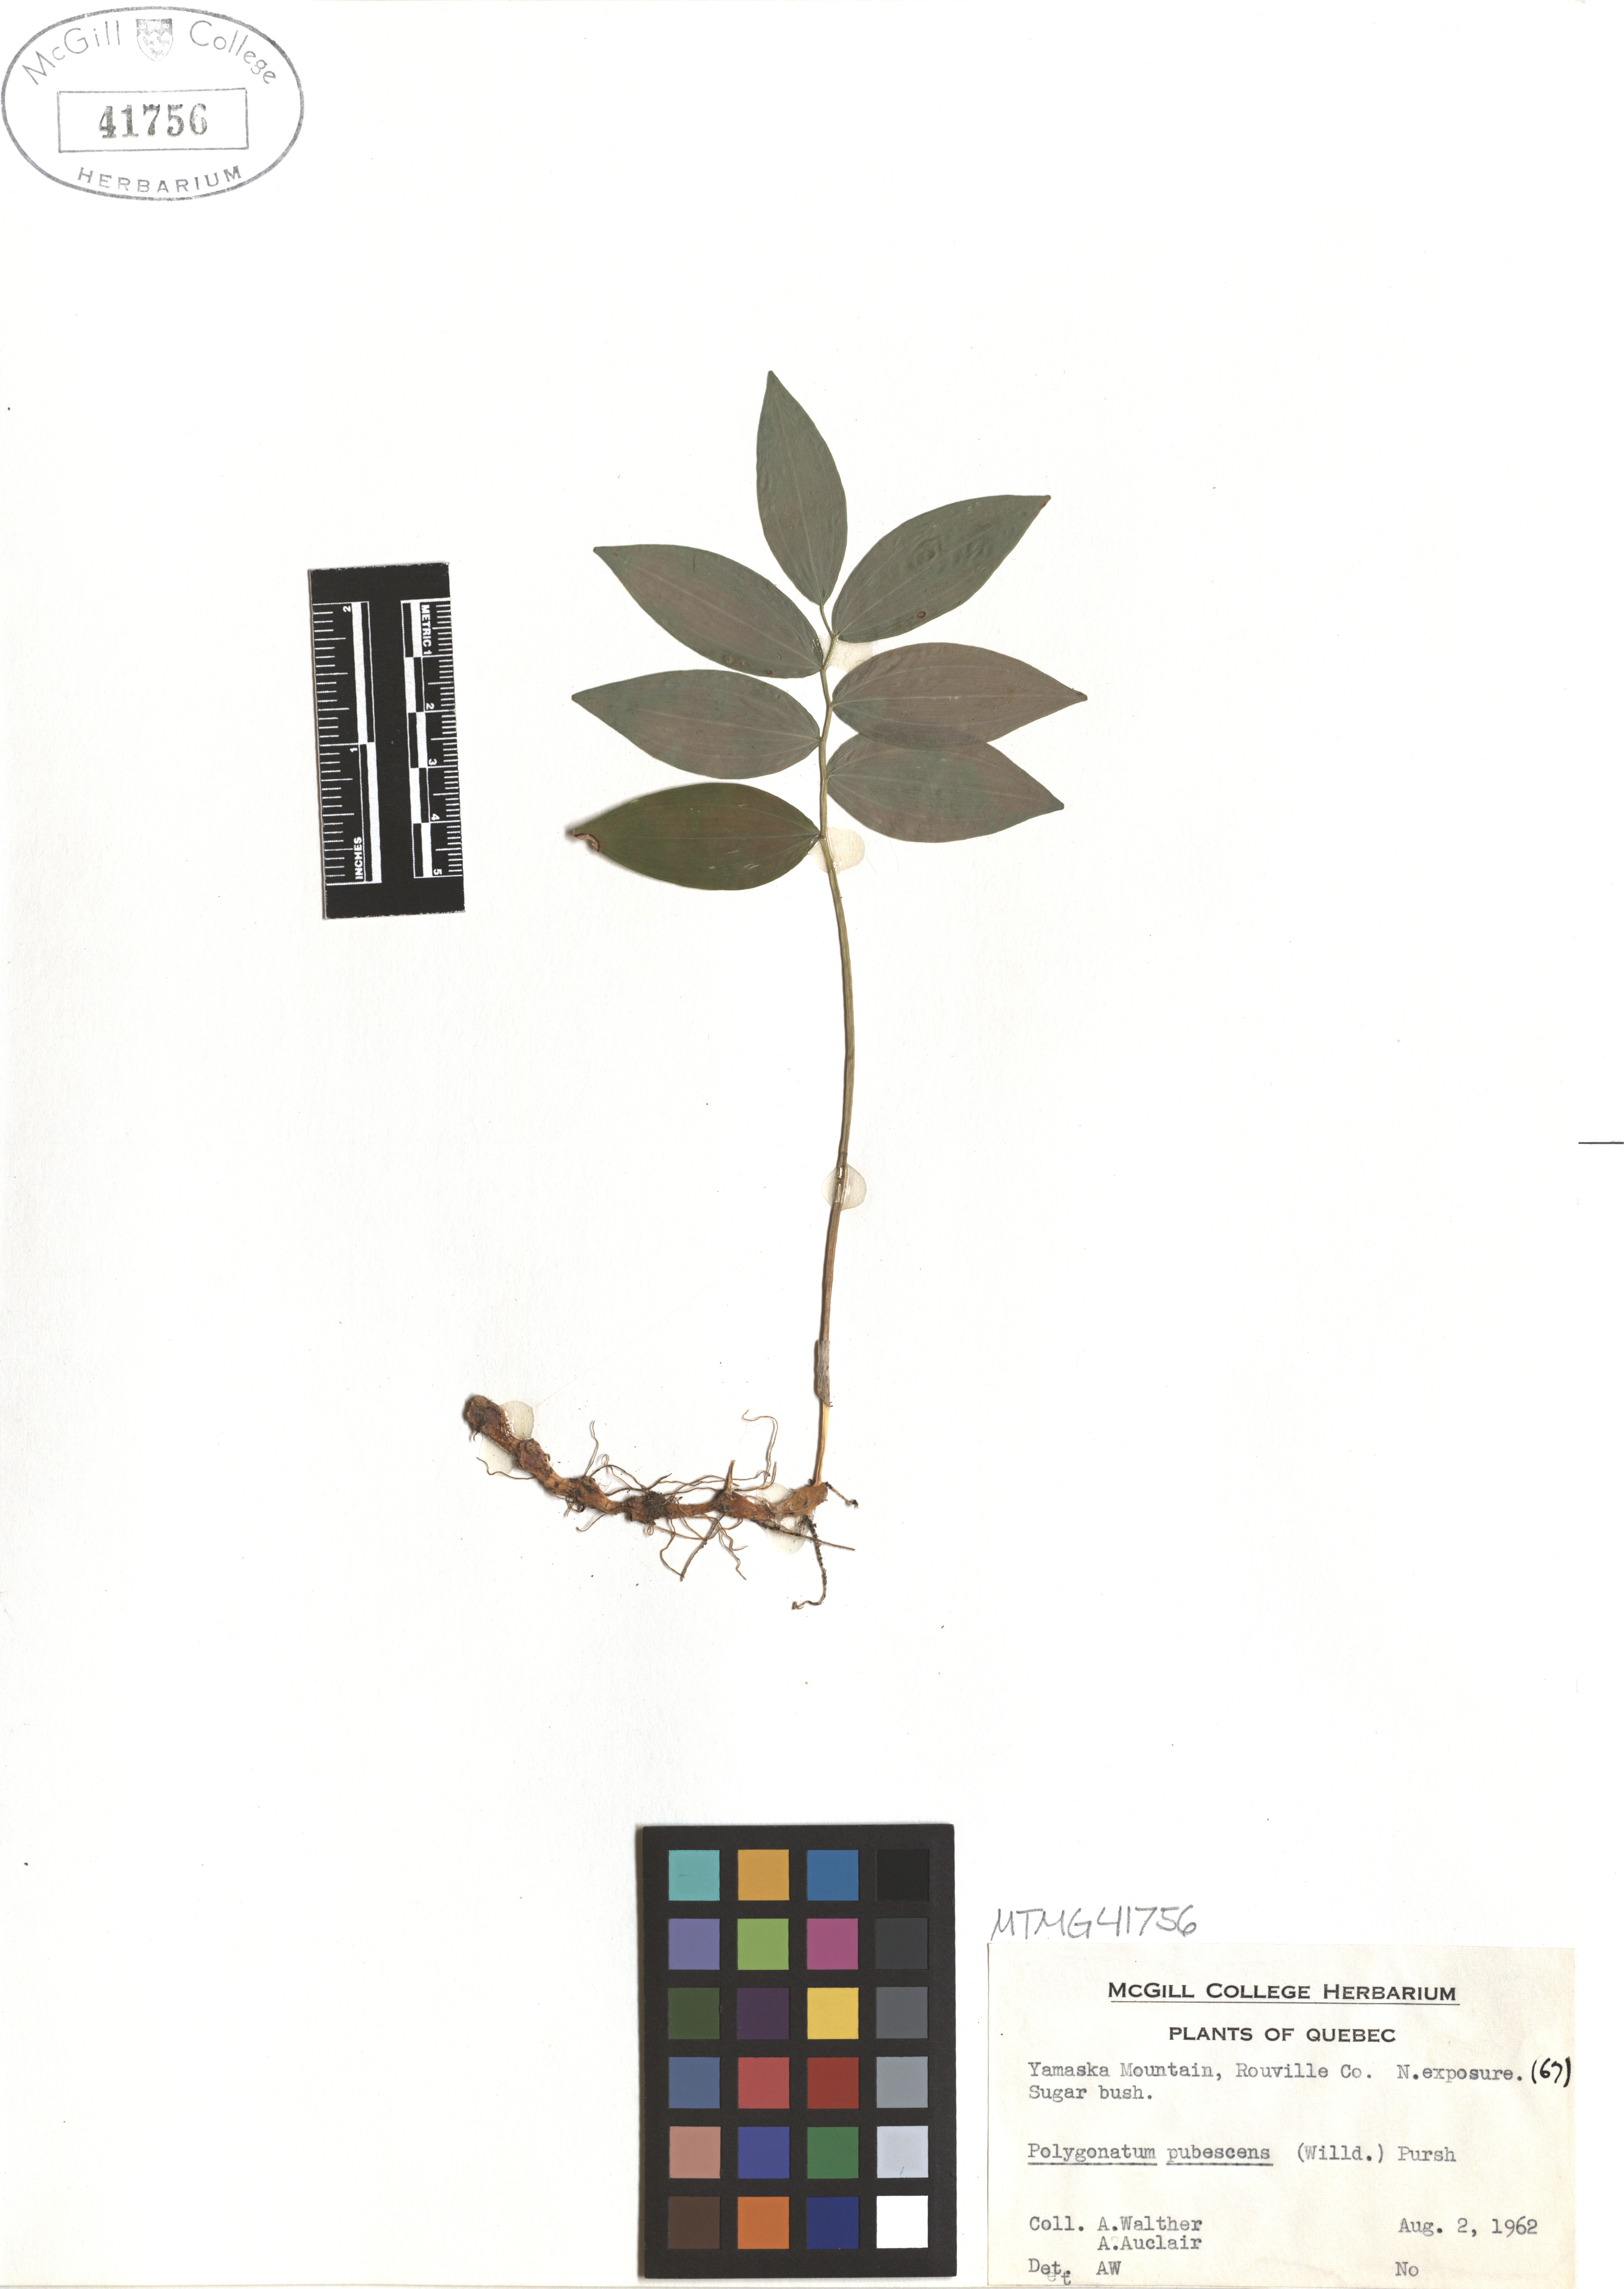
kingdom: Plantae
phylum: Tracheophyta
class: Liliopsida
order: Asparagales
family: Asparagaceae
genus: Polygonatum
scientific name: Polygonatum pubescens
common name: Downy solomon's seal
